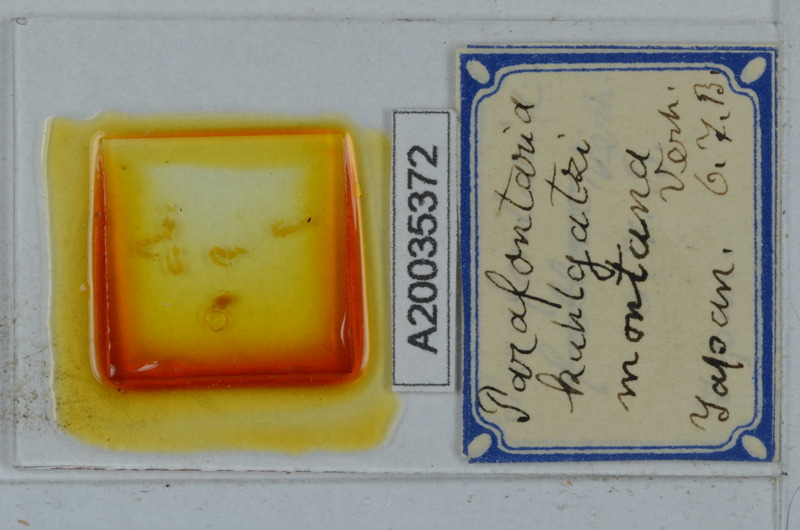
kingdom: Animalia
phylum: Arthropoda
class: Diplopoda
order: Polydesmida
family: Xystodesmidae
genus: Parafontaria
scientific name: Parafontaria
